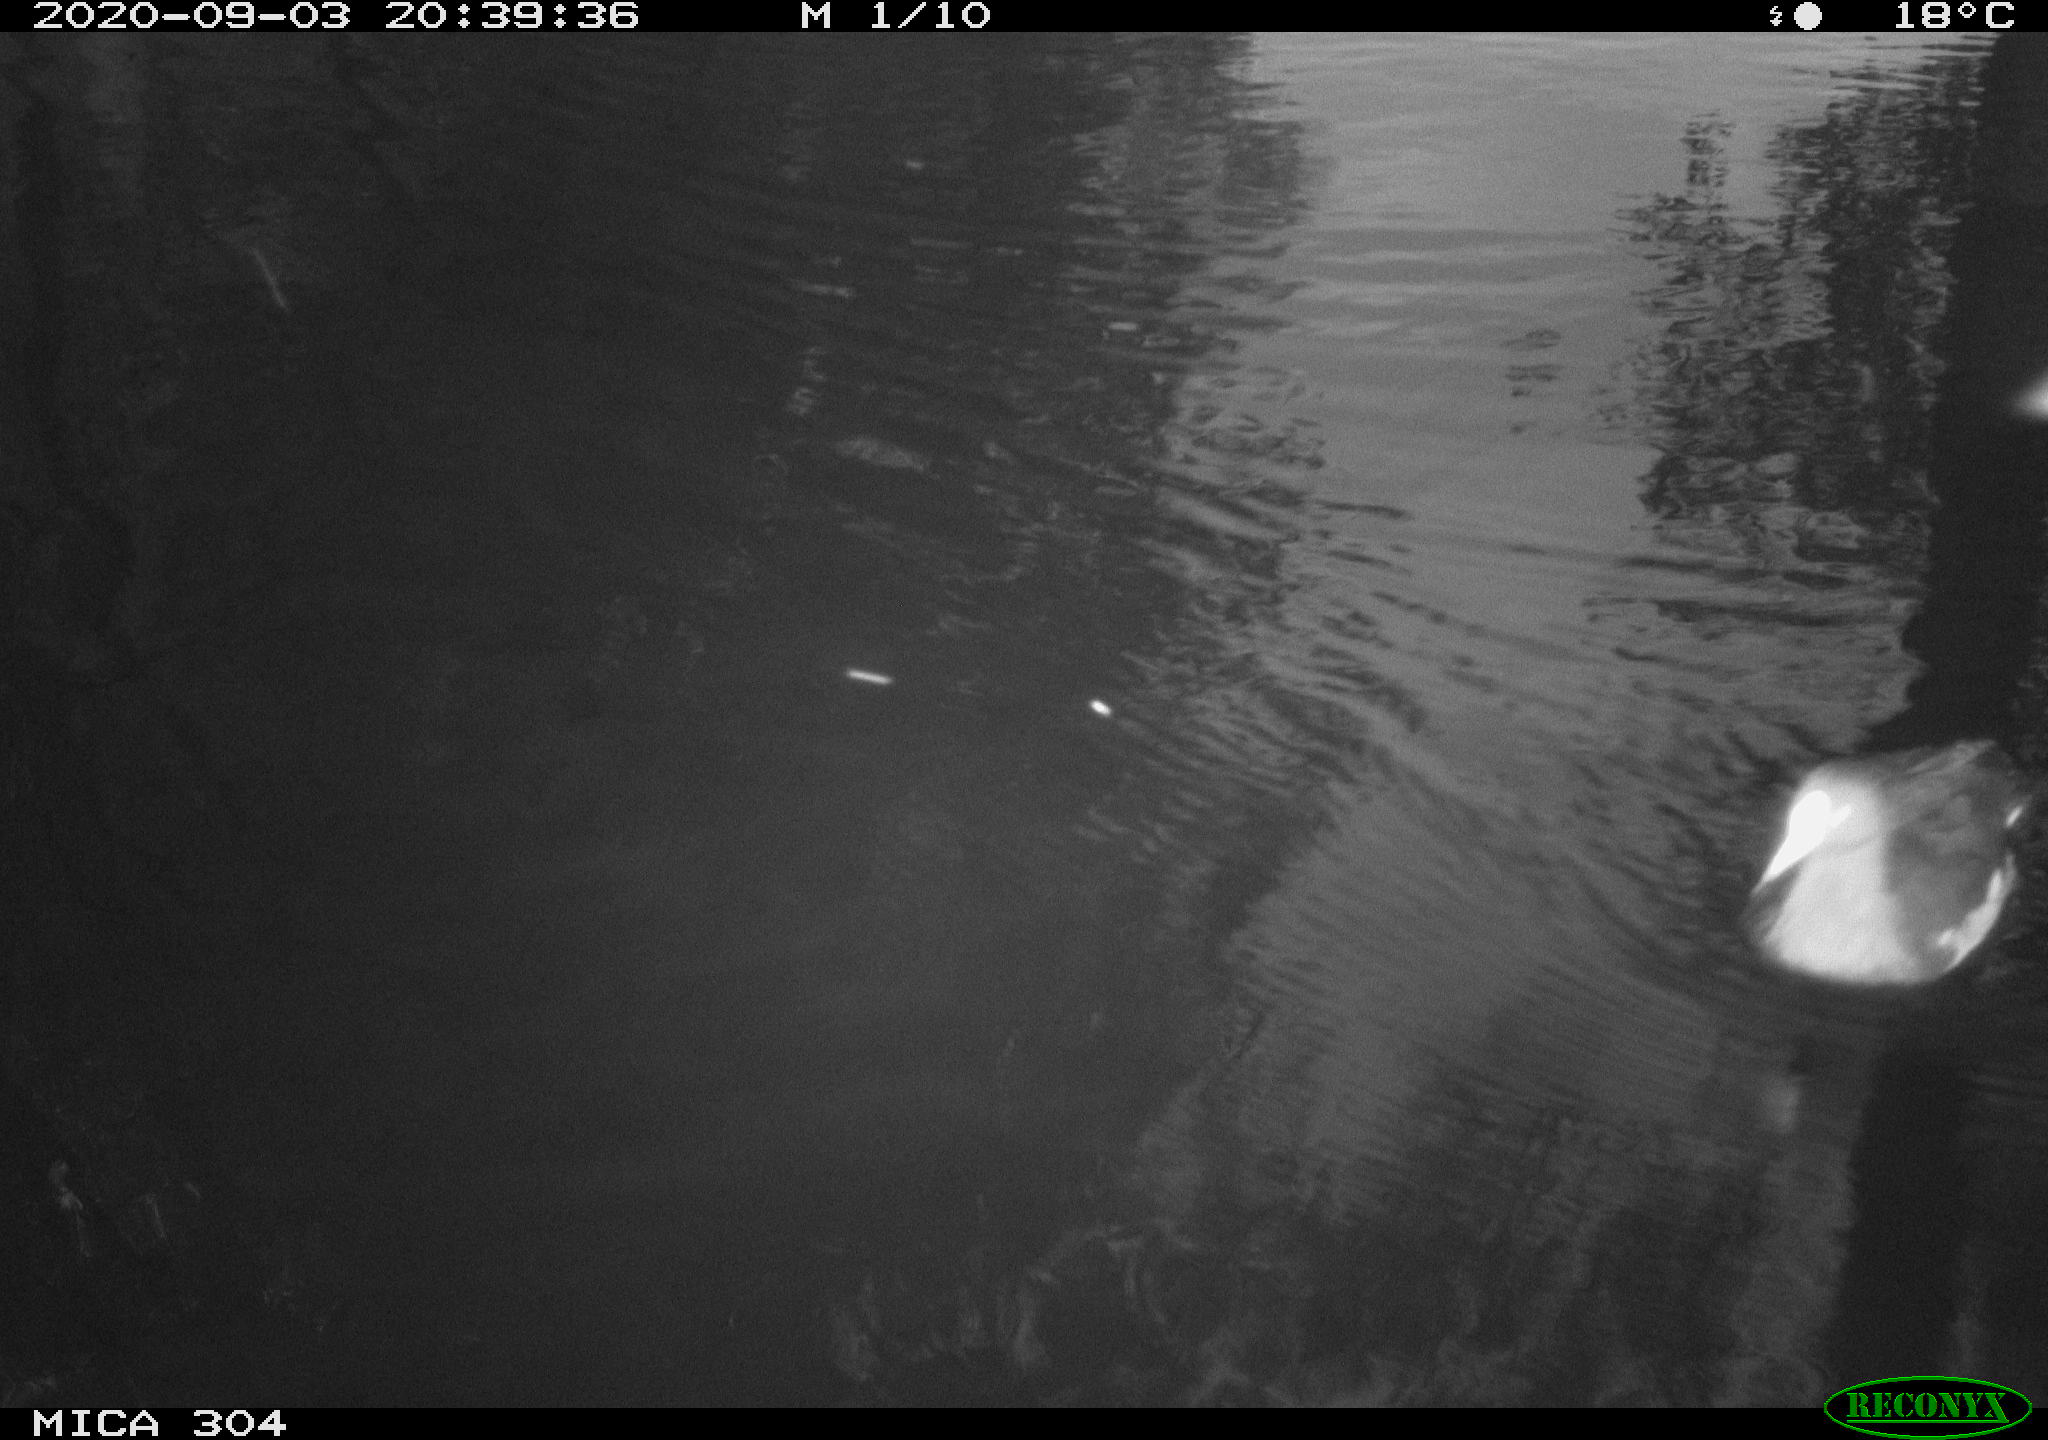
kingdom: Animalia
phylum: Chordata
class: Aves
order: Gruiformes
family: Rallidae
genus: Gallinula
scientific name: Gallinula chloropus
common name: Common moorhen
